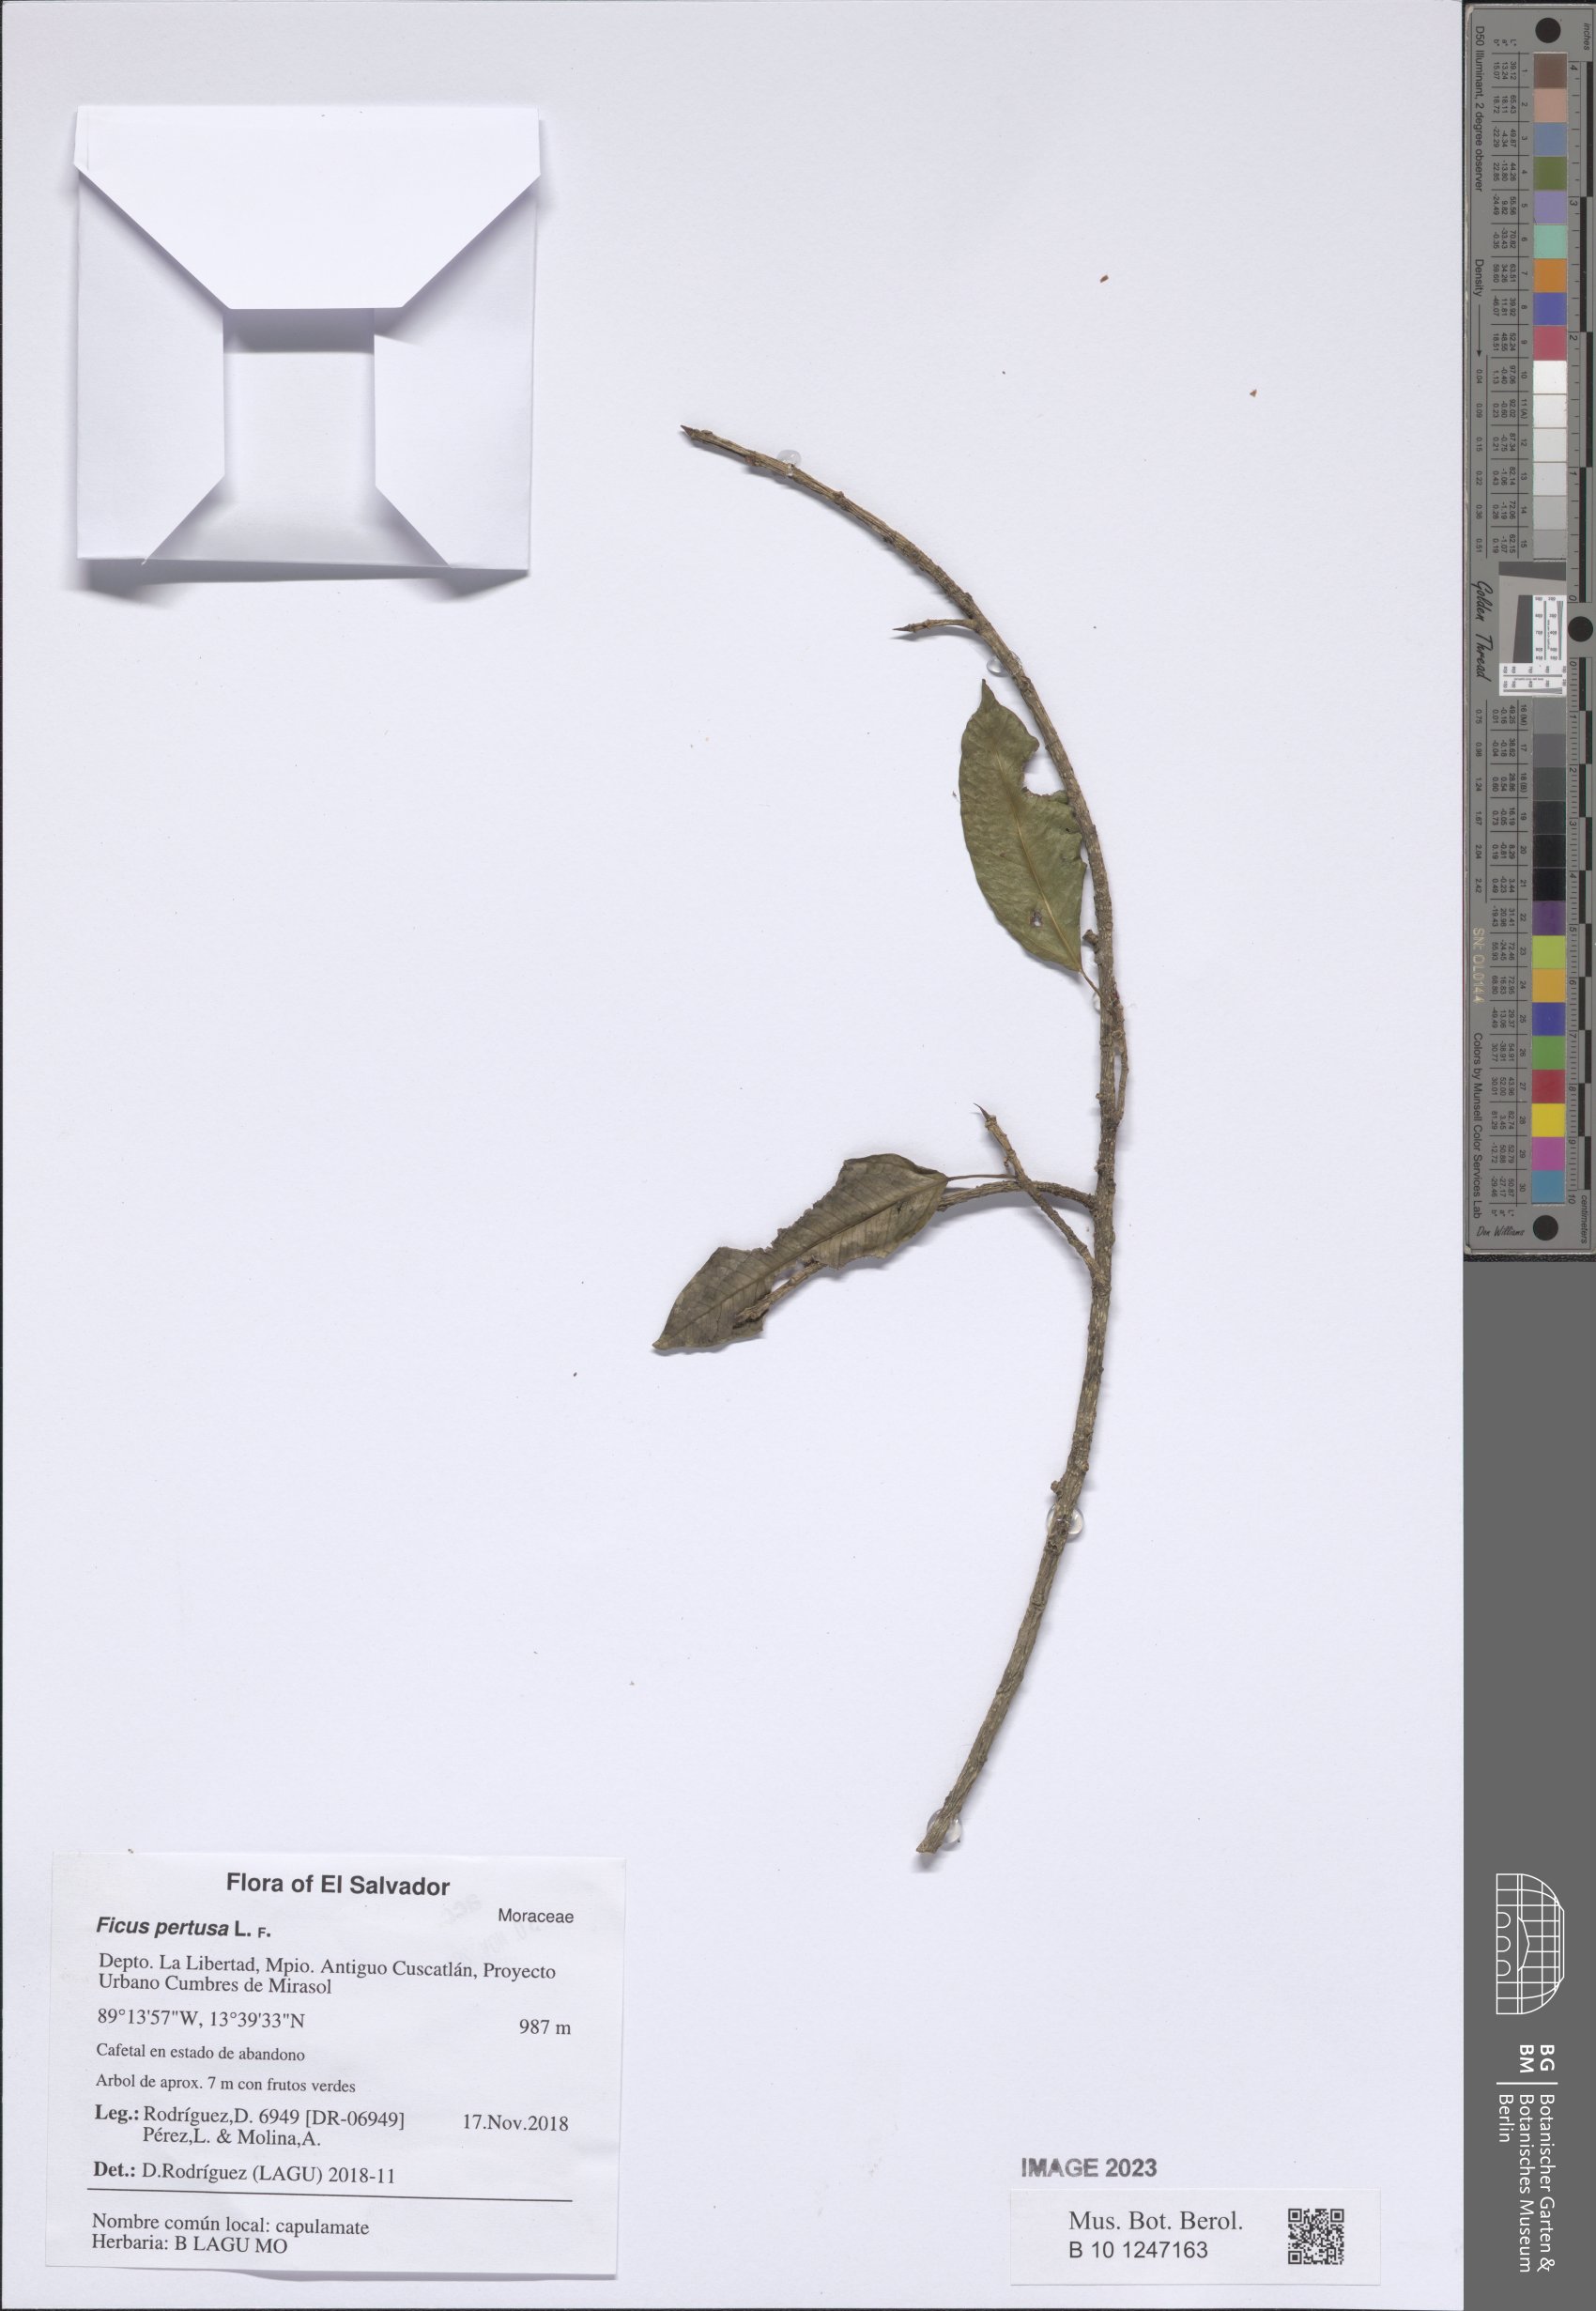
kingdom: Plantae
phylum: Tracheophyta
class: Magnoliopsida
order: Rosales
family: Moraceae
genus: Ficus
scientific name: Ficus pertusa
